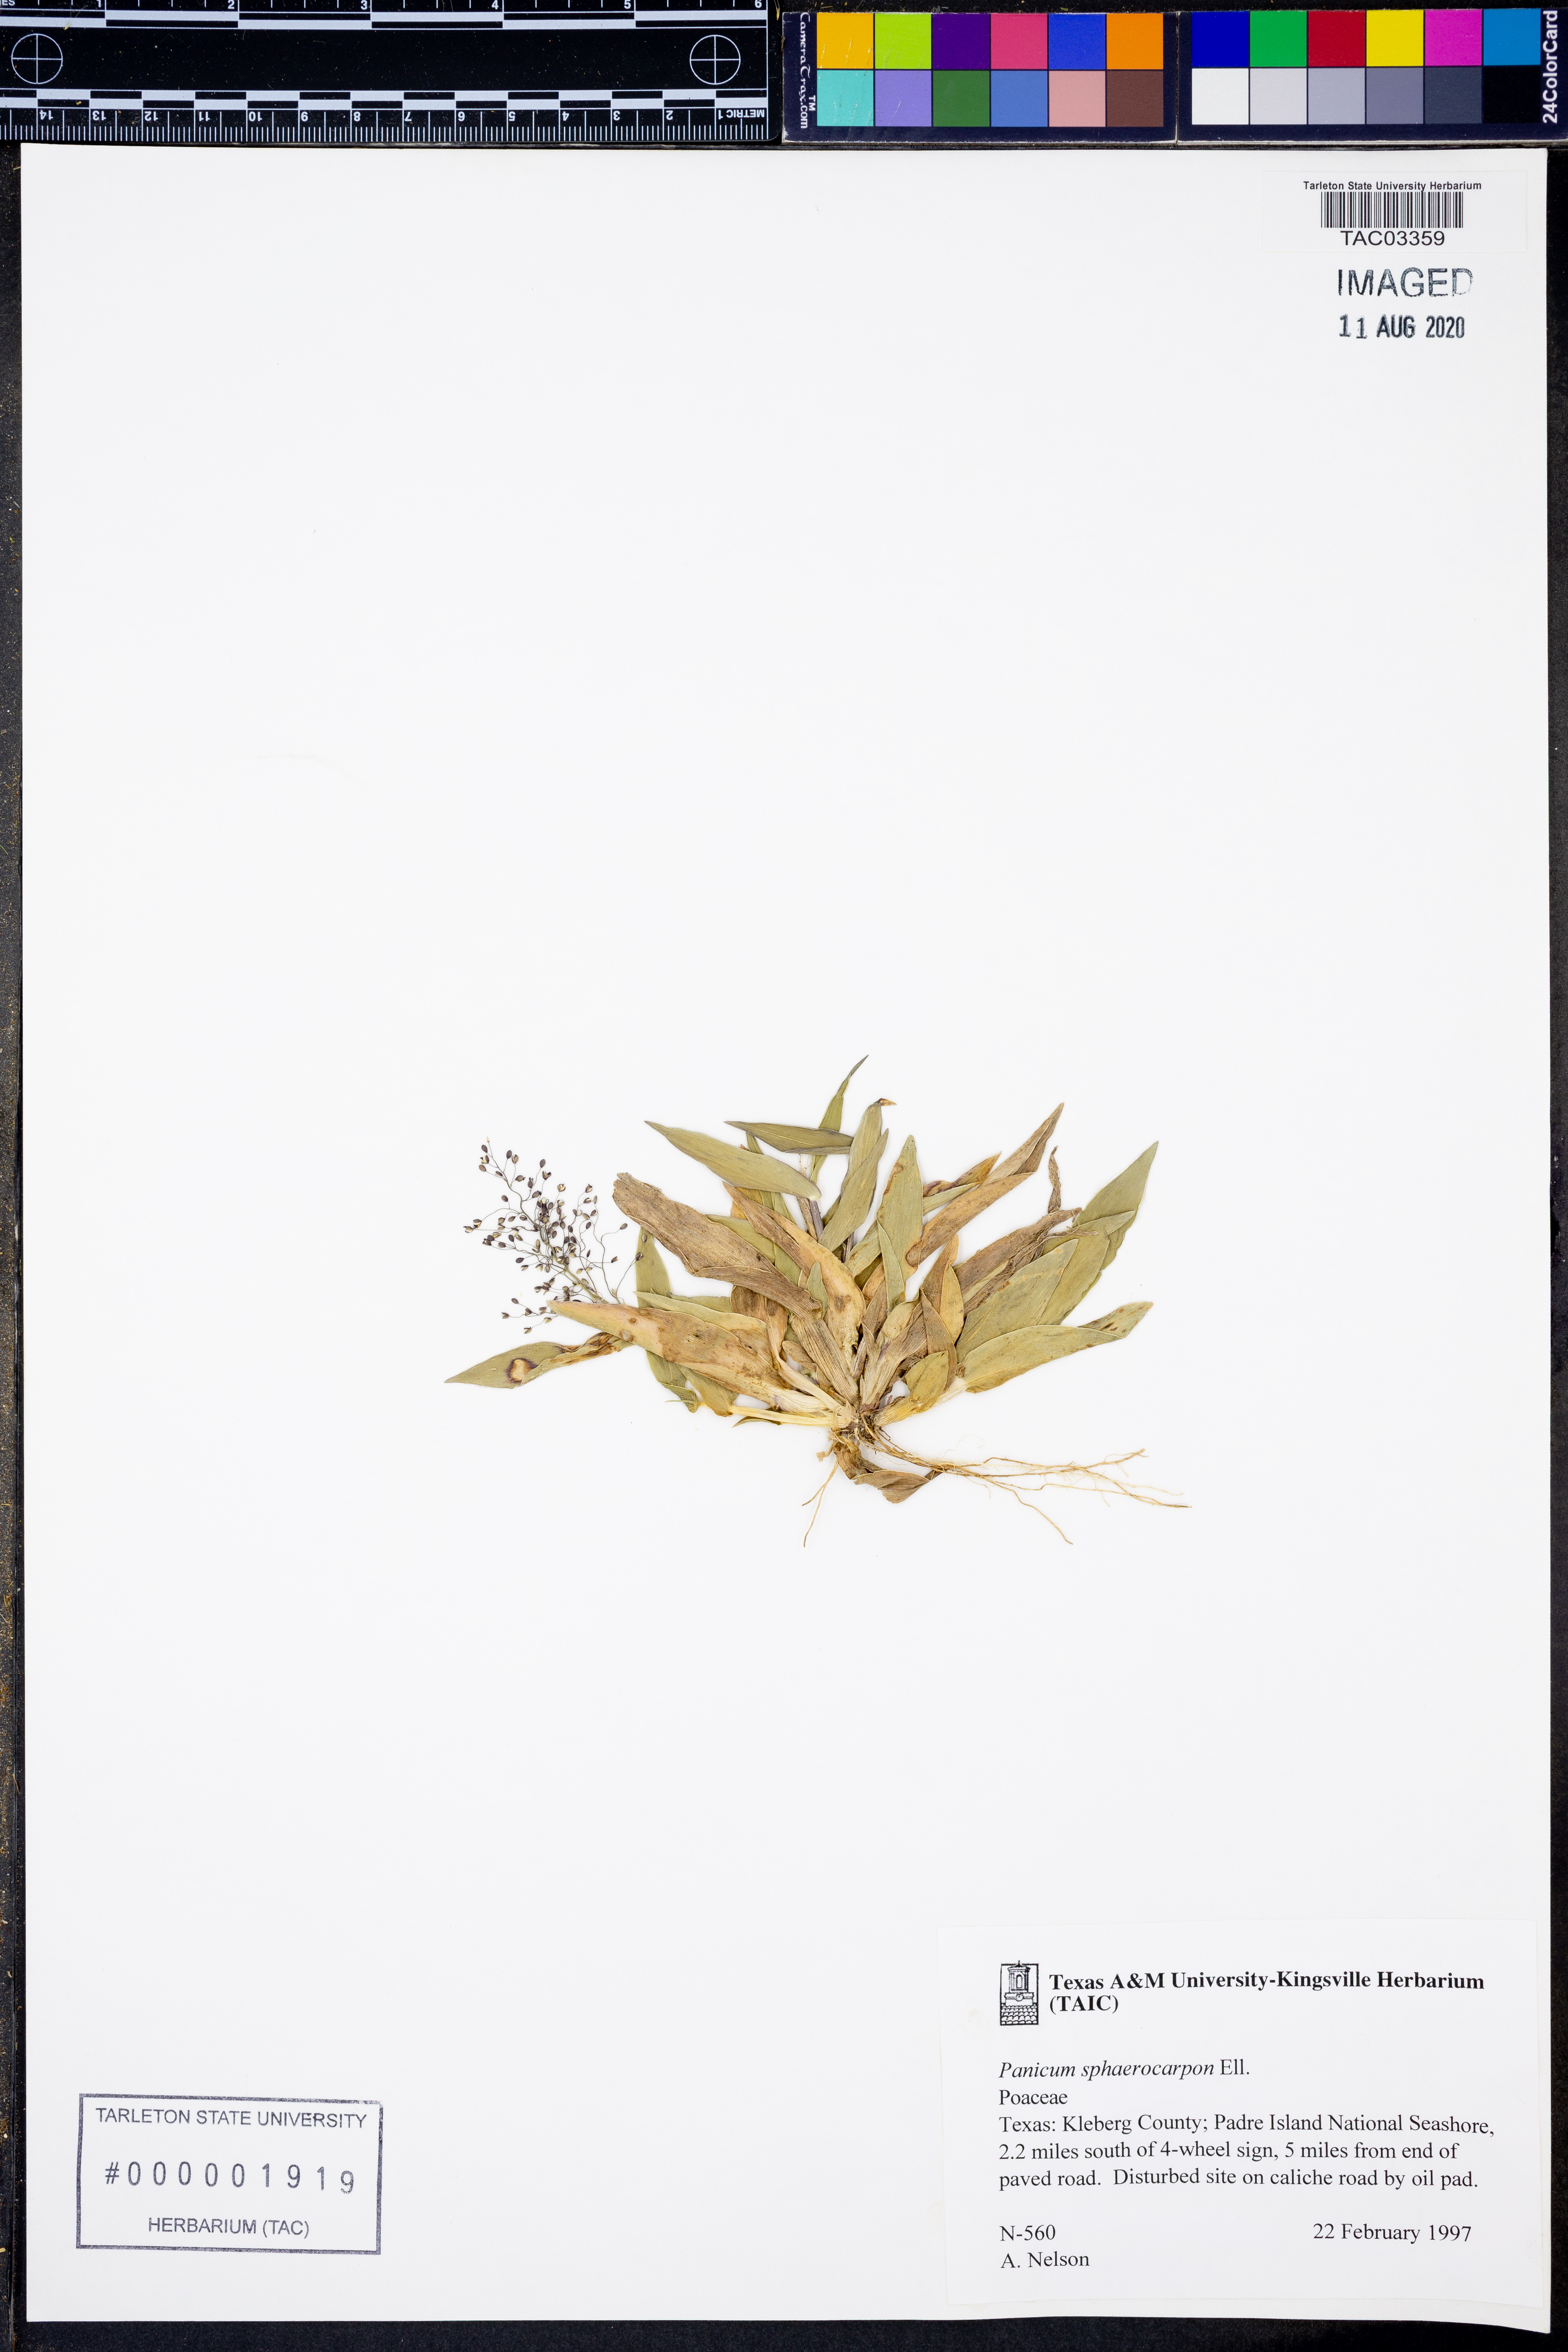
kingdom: Plantae
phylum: Tracheophyta
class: Liliopsida
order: Poales
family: Poaceae
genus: Dichanthelium
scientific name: Dichanthelium sphaerocarpon
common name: Round-fruited panicgrass
